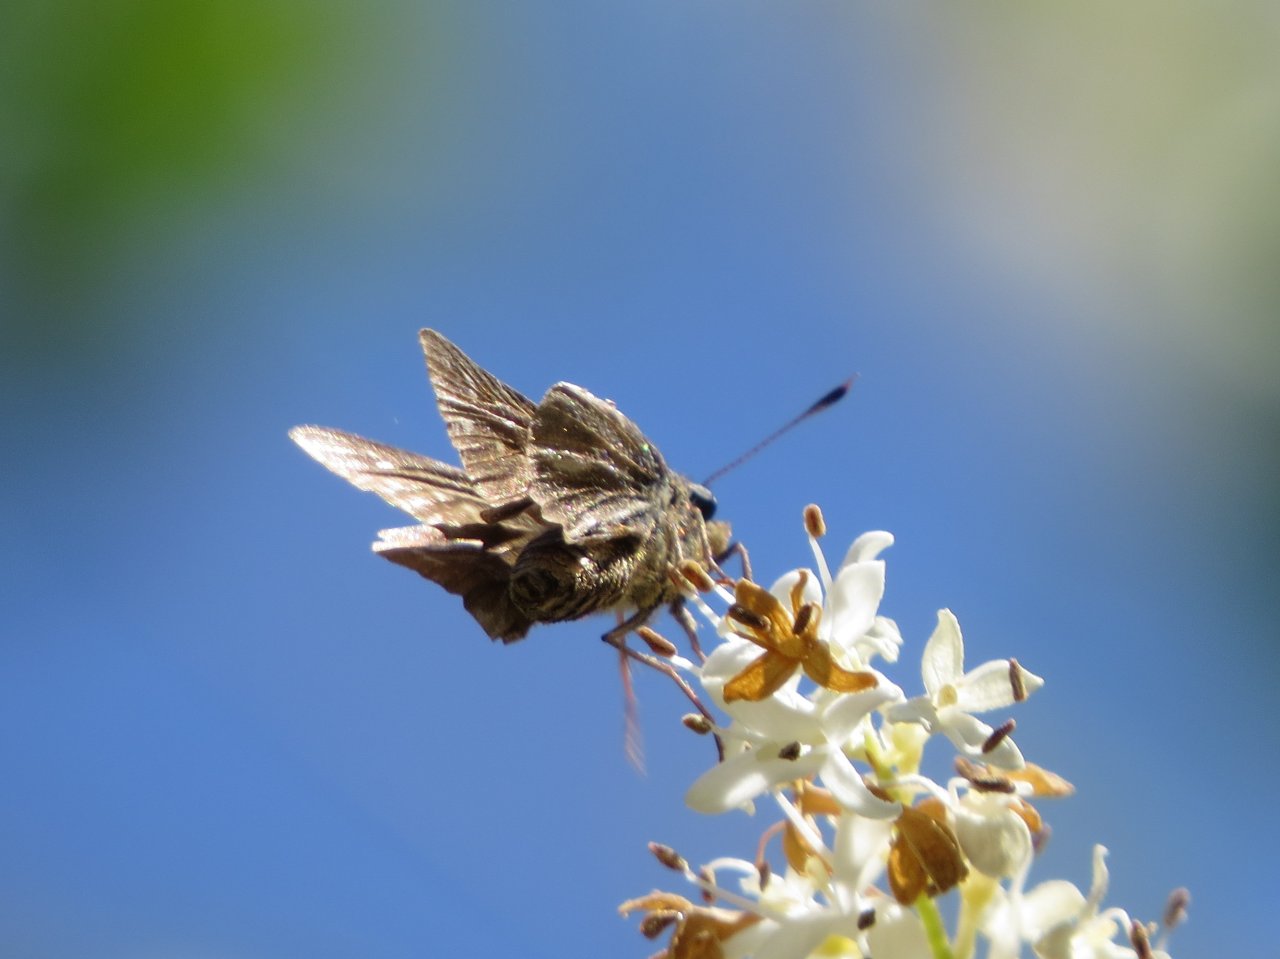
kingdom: Animalia
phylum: Arthropoda
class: Insecta
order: Lepidoptera
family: Hesperiidae
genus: Panoquina
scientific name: Panoquina panoquin
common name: Salt Marsh Skipper
